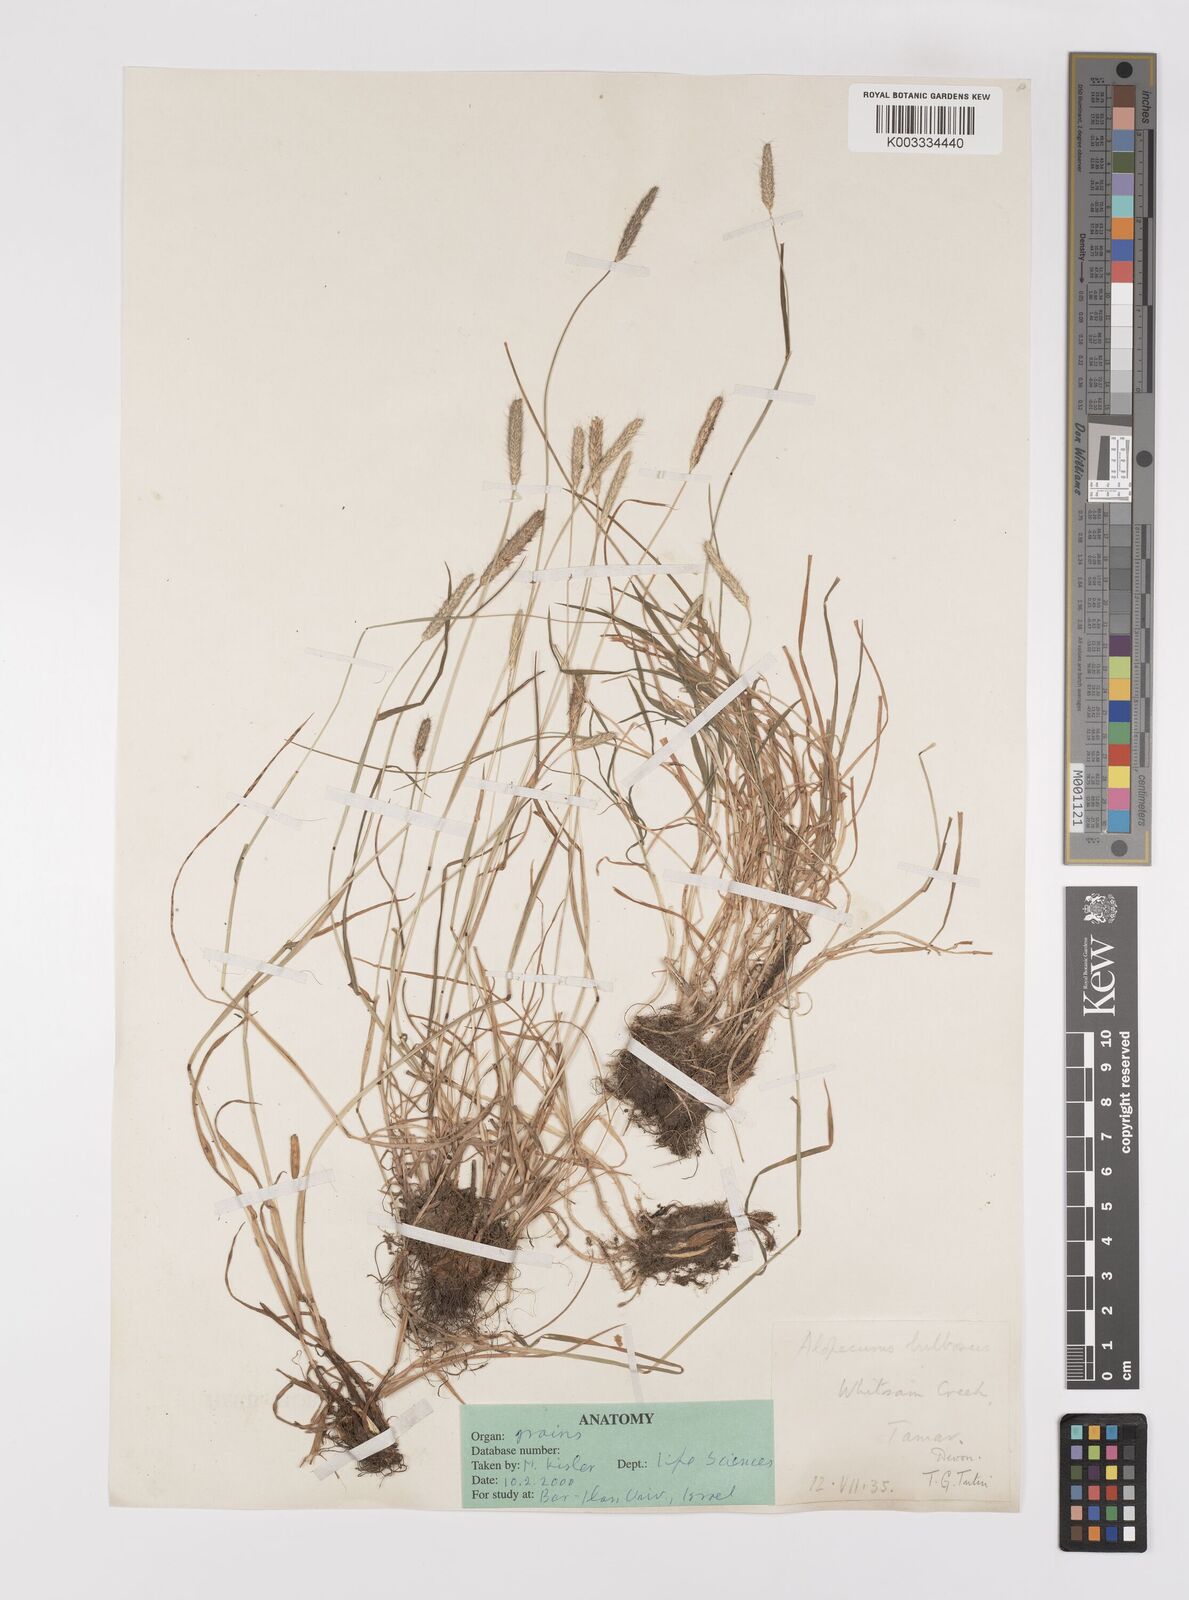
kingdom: Plantae
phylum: Tracheophyta
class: Liliopsida
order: Poales
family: Poaceae
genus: Alopecurus
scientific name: Alopecurus bulbosus
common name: Bulbous foxtail
